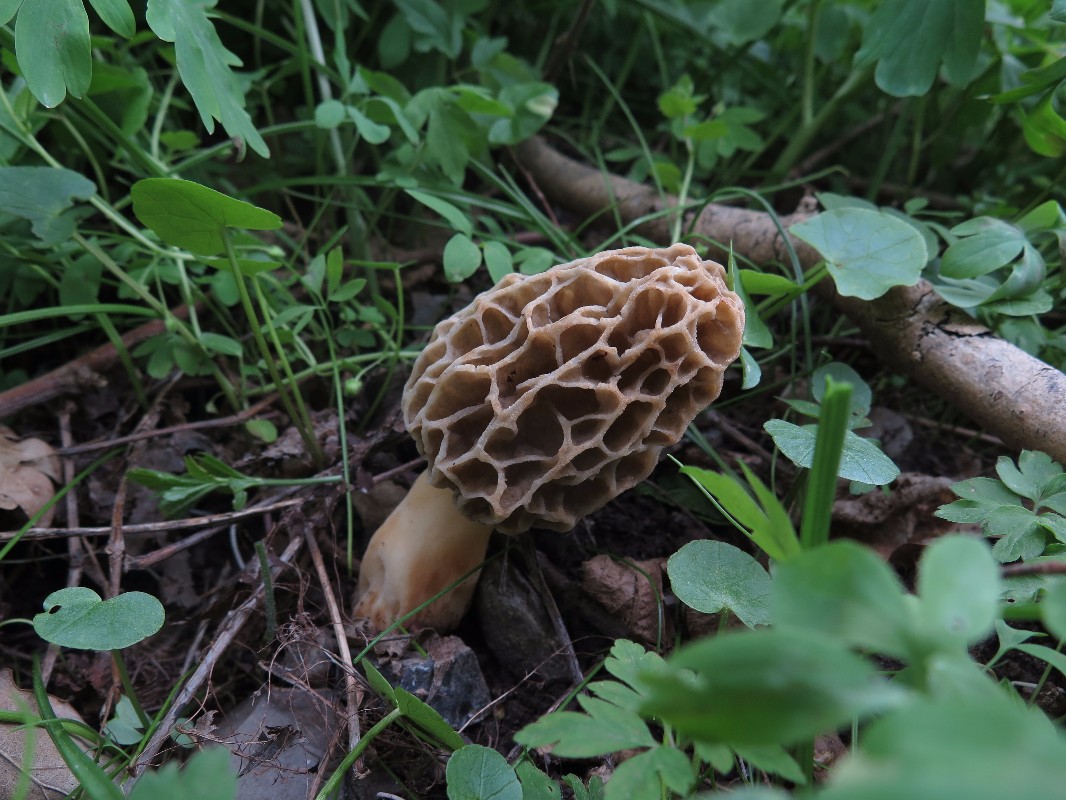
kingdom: Fungi
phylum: Ascomycota
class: Pezizomycetes
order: Pezizales
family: Morchellaceae
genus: Morchella
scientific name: Morchella esculenta
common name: spiselig morkel
